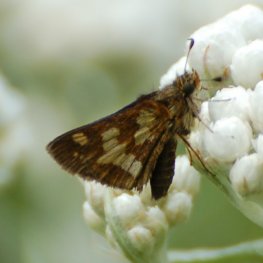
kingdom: Animalia
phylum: Arthropoda
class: Insecta
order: Lepidoptera
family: Hesperiidae
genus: Polites
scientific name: Polites coras
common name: Peck's Skipper
